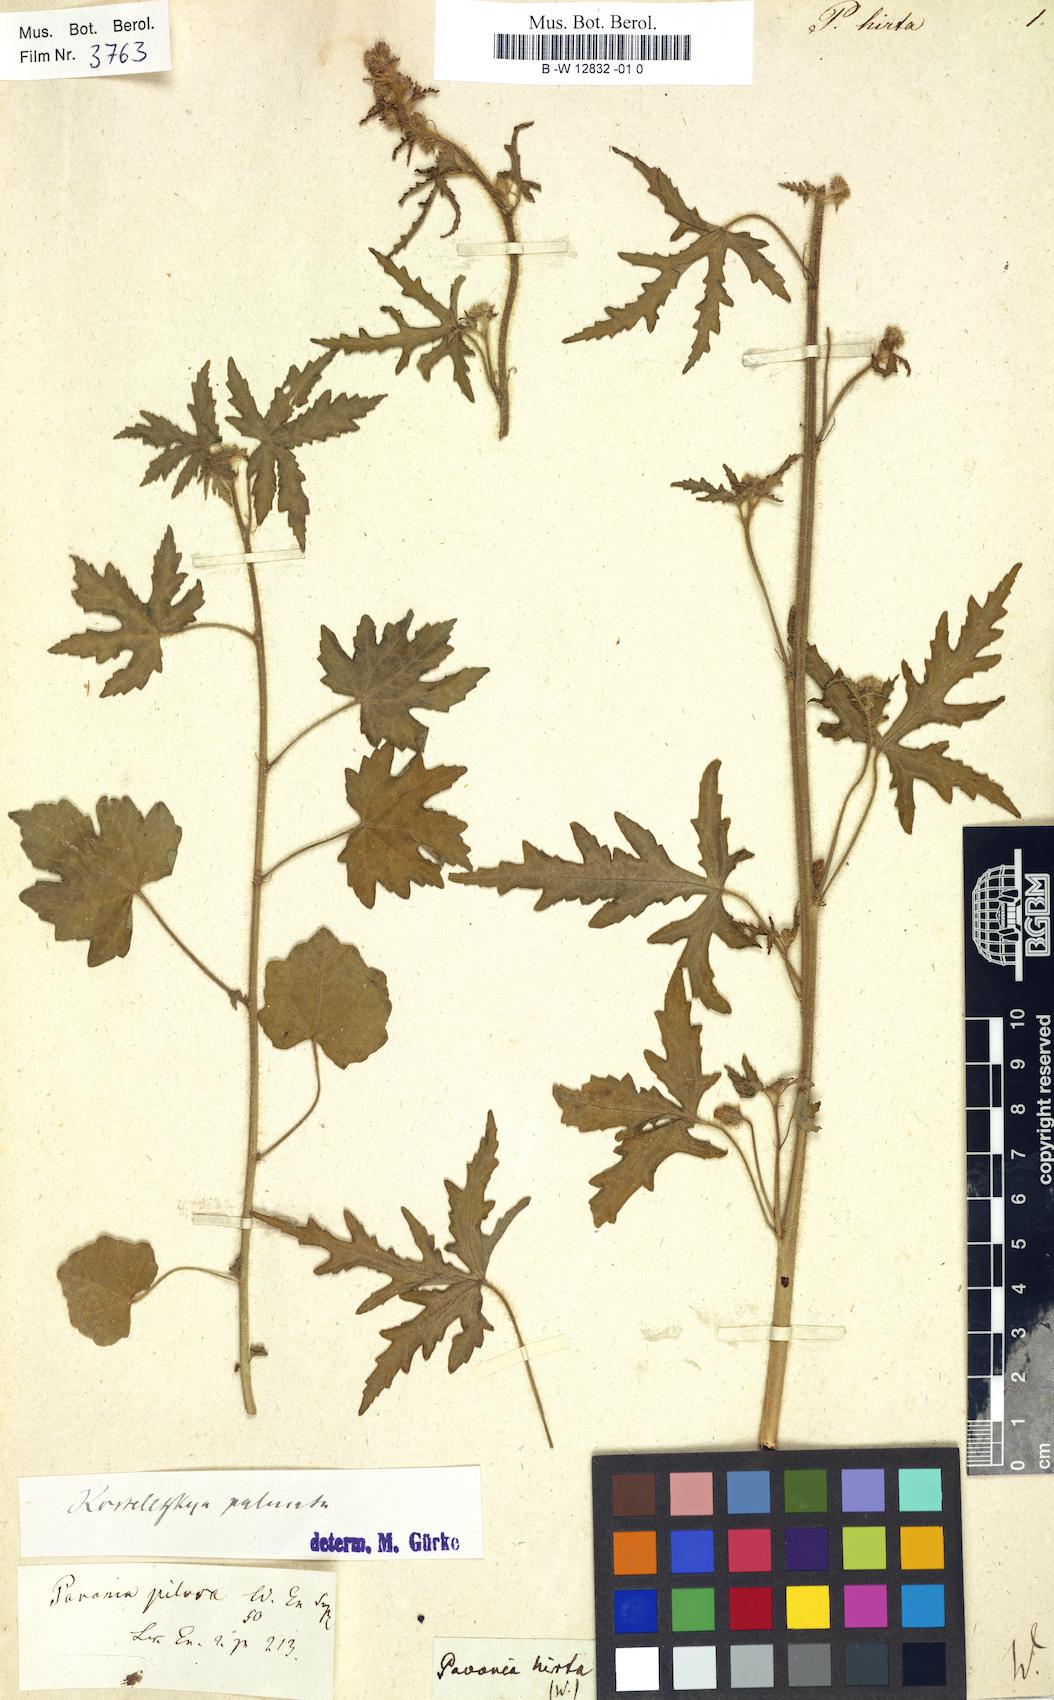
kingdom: Plantae
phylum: Tracheophyta
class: Magnoliopsida
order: Malvales
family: Malvaceae
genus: Pavonia
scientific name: Pavonia
